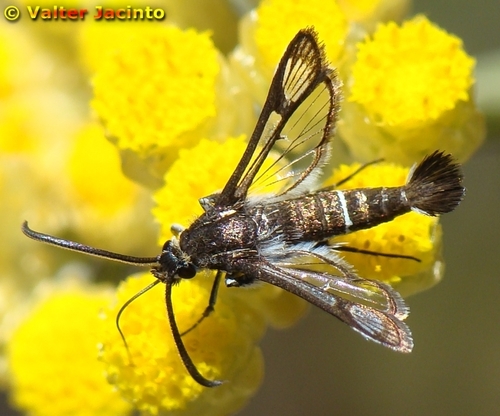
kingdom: Animalia
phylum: Arthropoda
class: Insecta
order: Lepidoptera
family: Sesiidae
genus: Pyropteron
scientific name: Pyropteron leucomelaena
